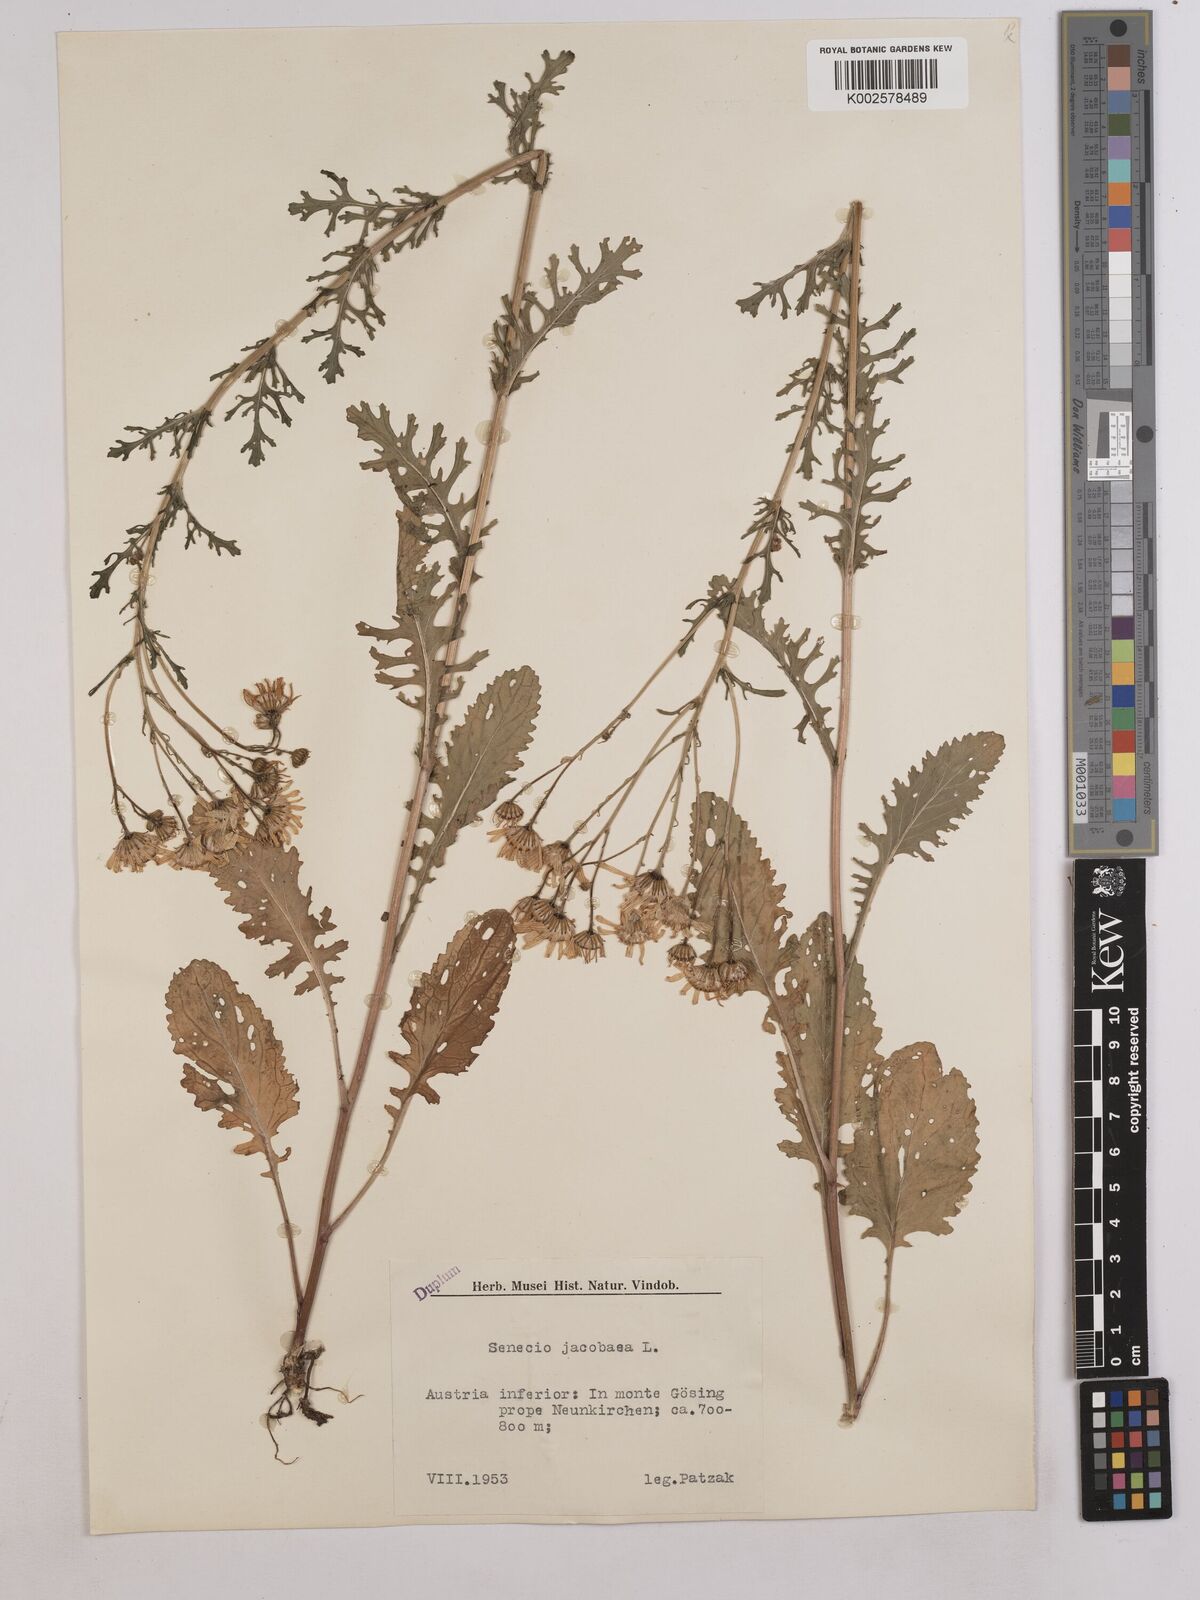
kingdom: Plantae
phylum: Tracheophyta
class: Magnoliopsida
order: Asterales
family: Asteraceae
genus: Jacobaea
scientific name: Jacobaea vulgaris
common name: Stinking willie
